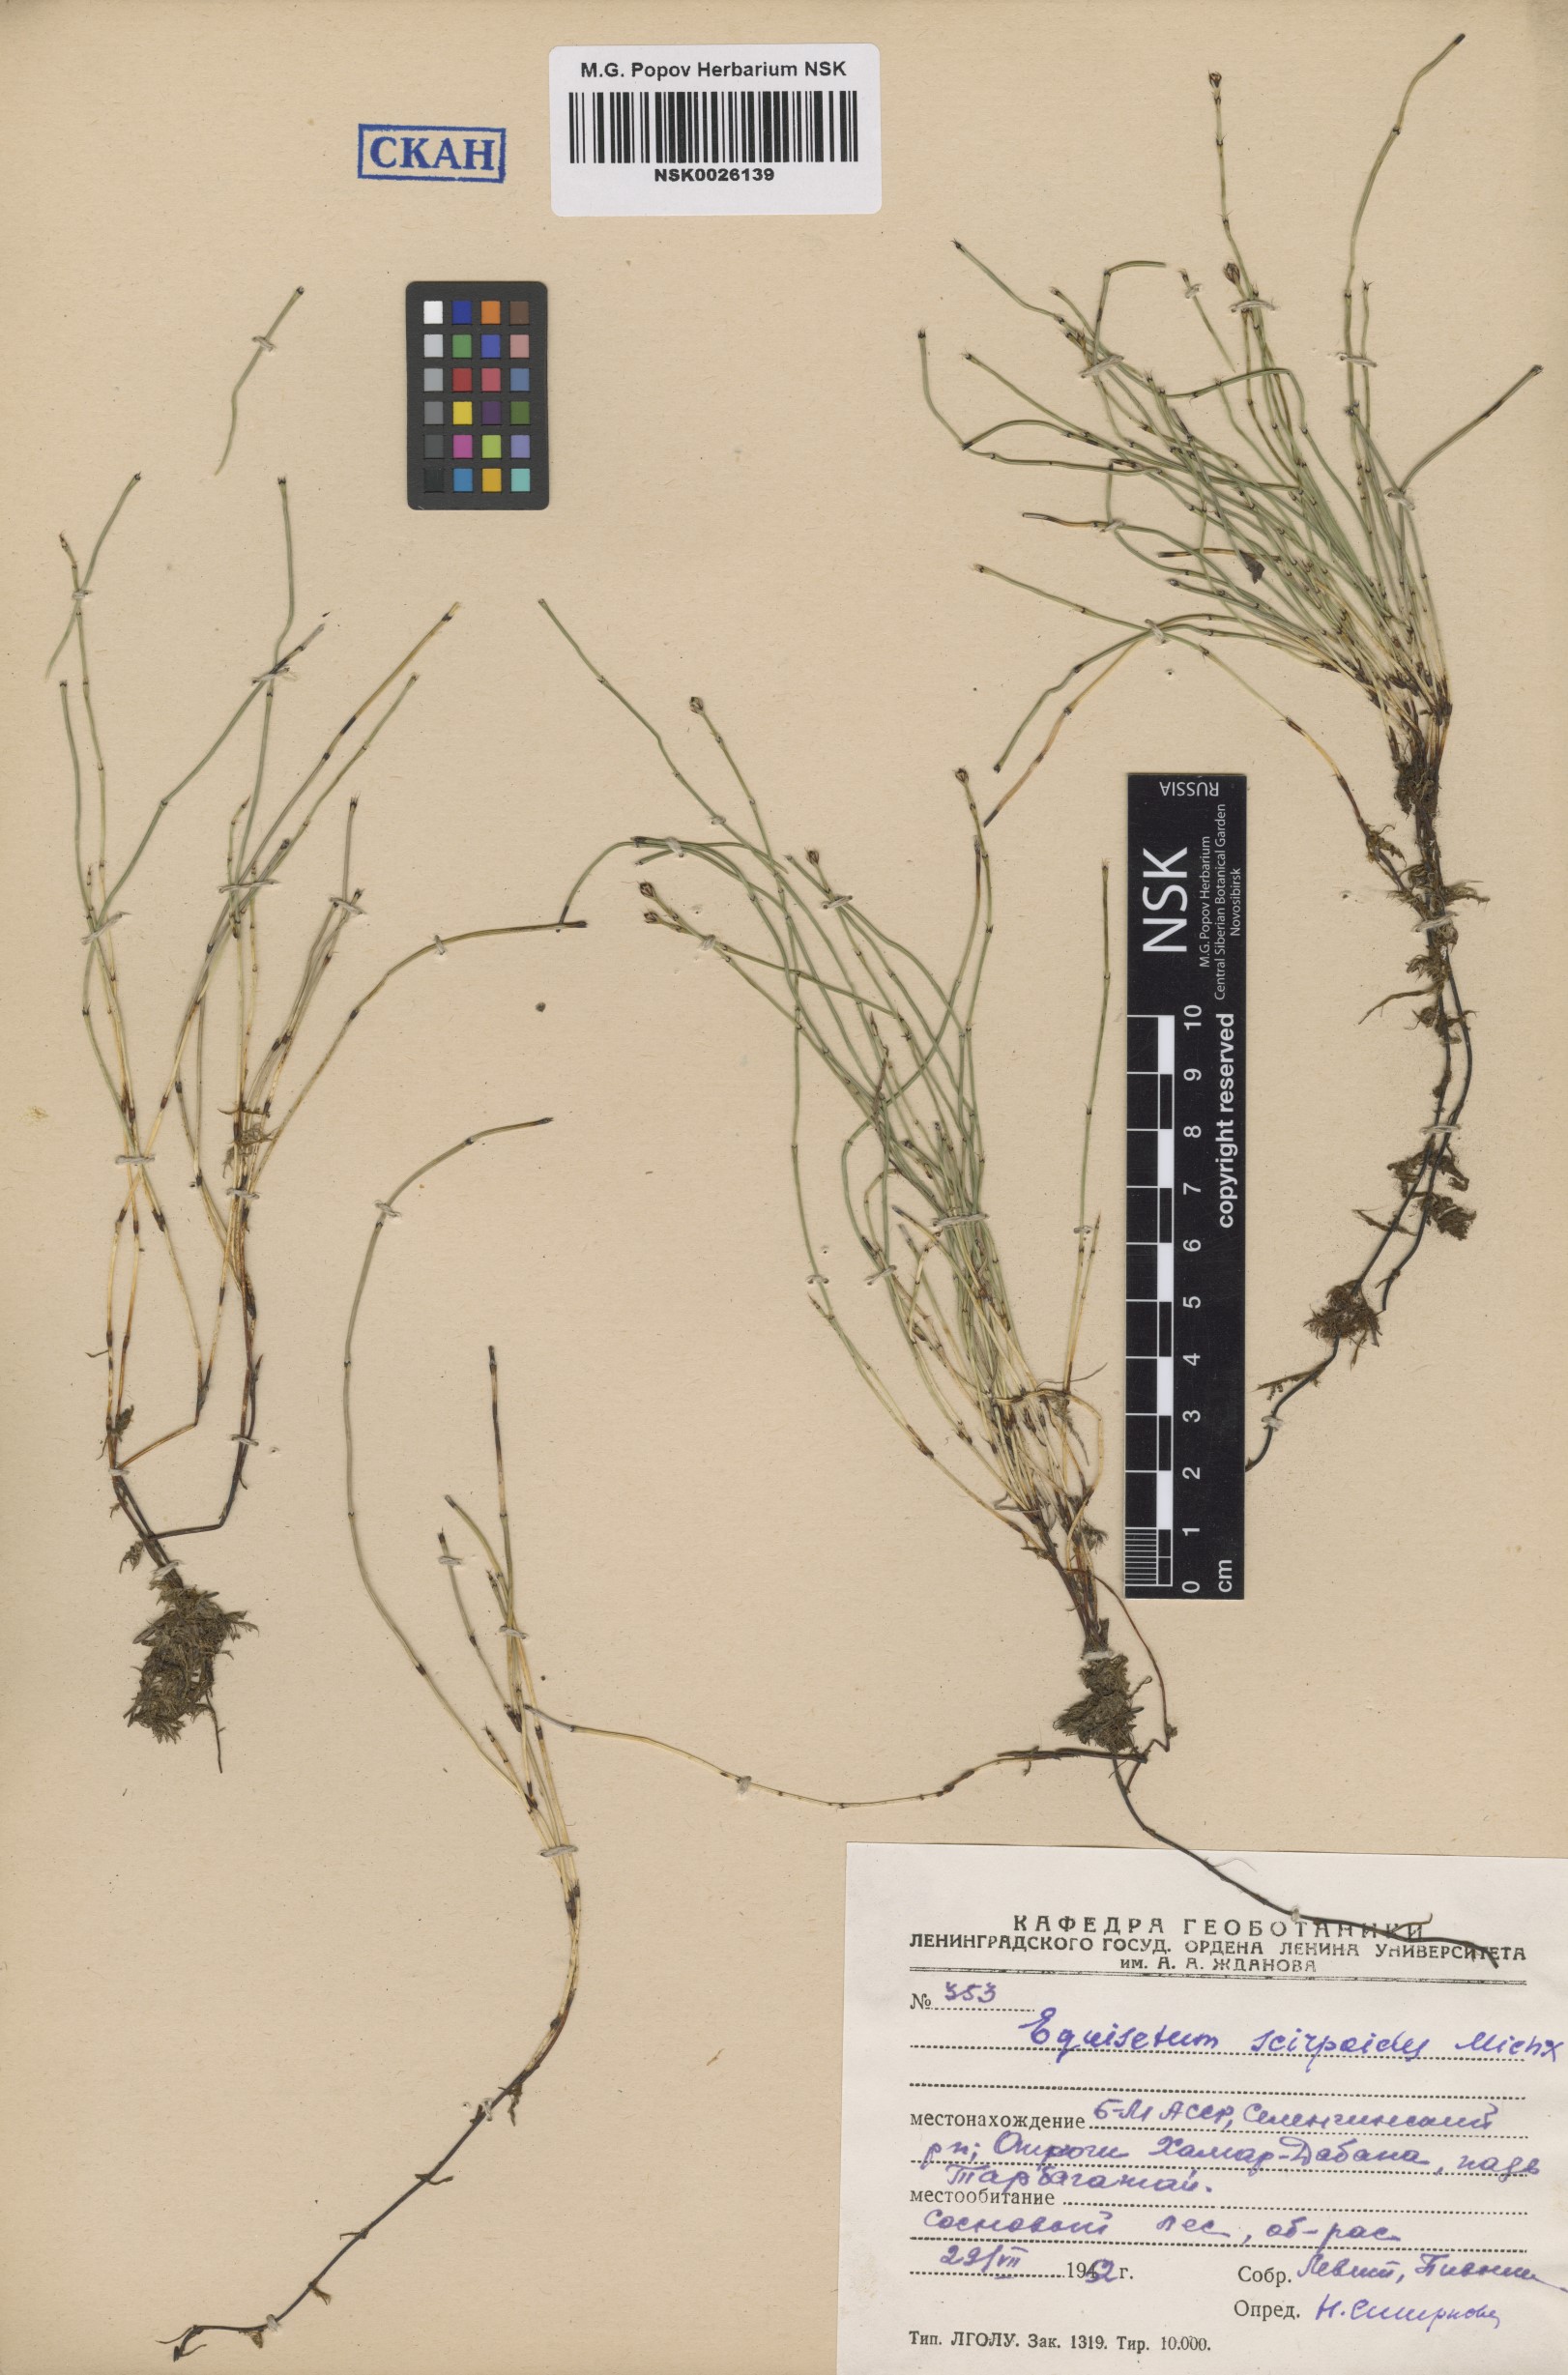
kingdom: Plantae
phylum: Tracheophyta
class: Polypodiopsida
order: Equisetales
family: Equisetaceae
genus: Equisetum
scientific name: Equisetum scirpoides
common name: Delicate horsetail
